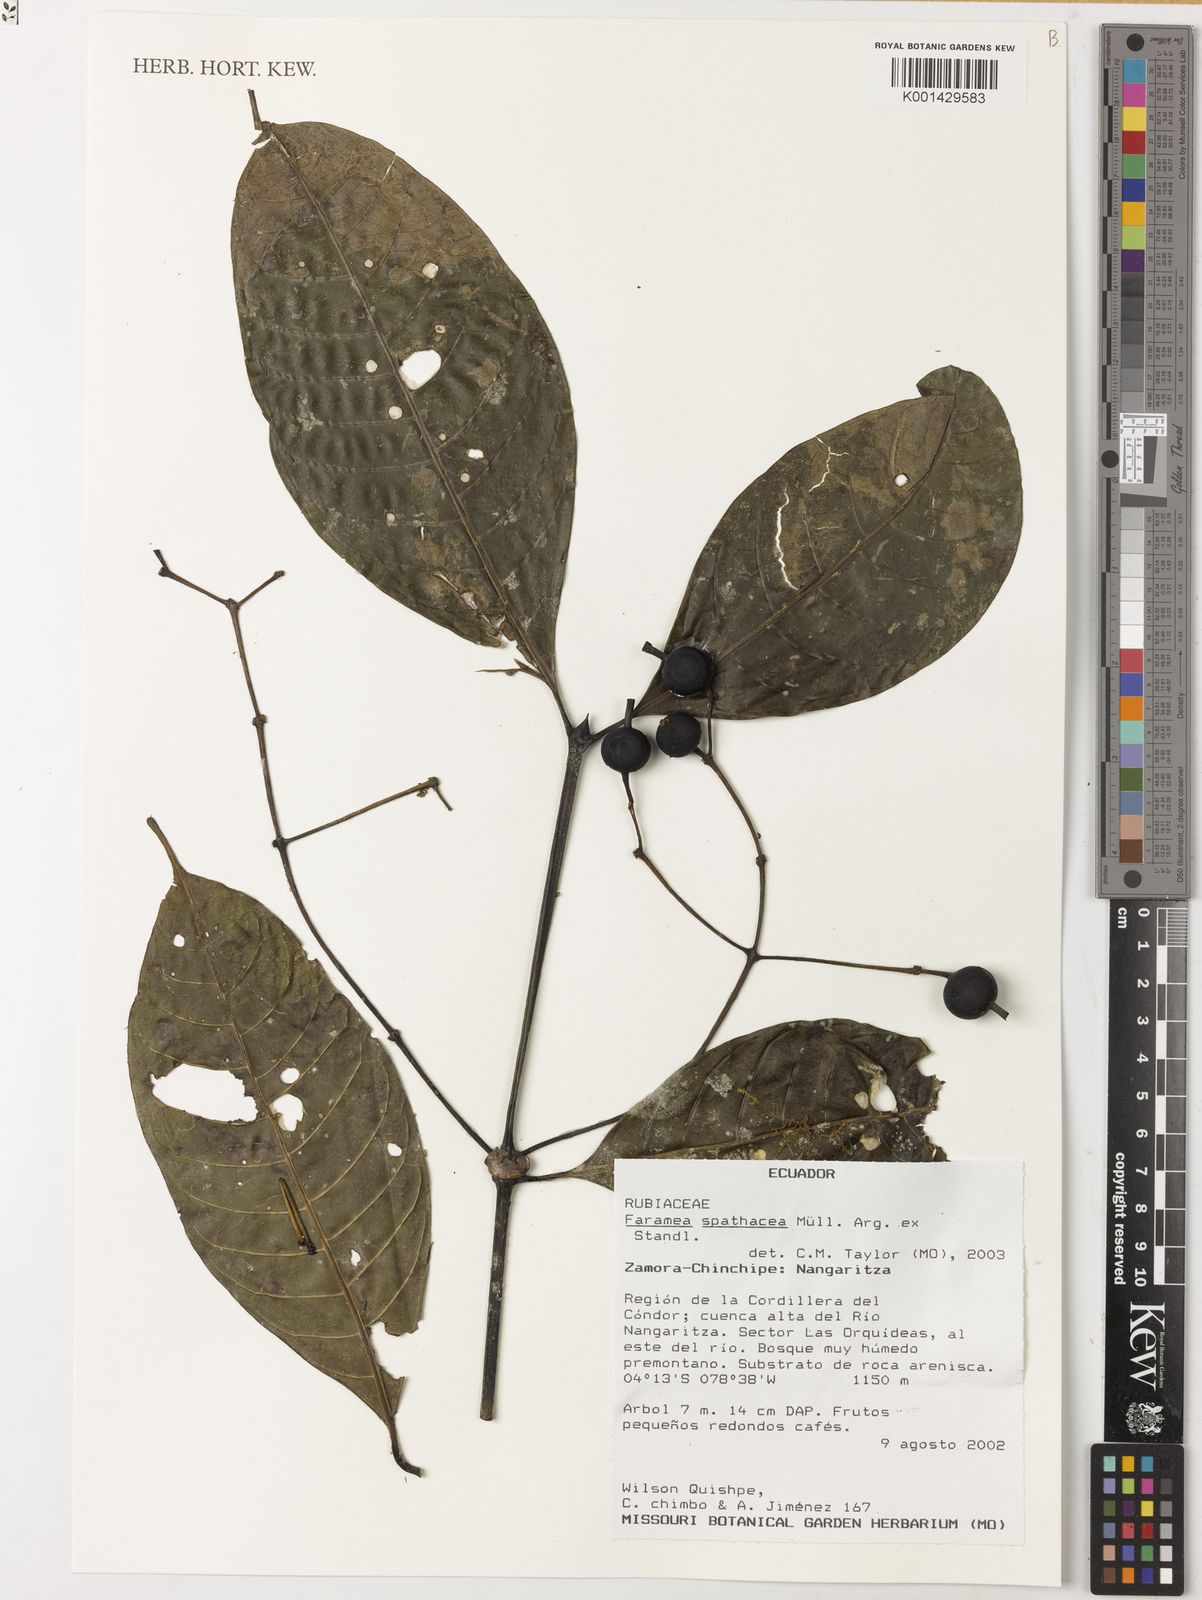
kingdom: Plantae
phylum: Tracheophyta
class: Magnoliopsida
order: Gentianales
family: Rubiaceae
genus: Faramea
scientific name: Faramea
